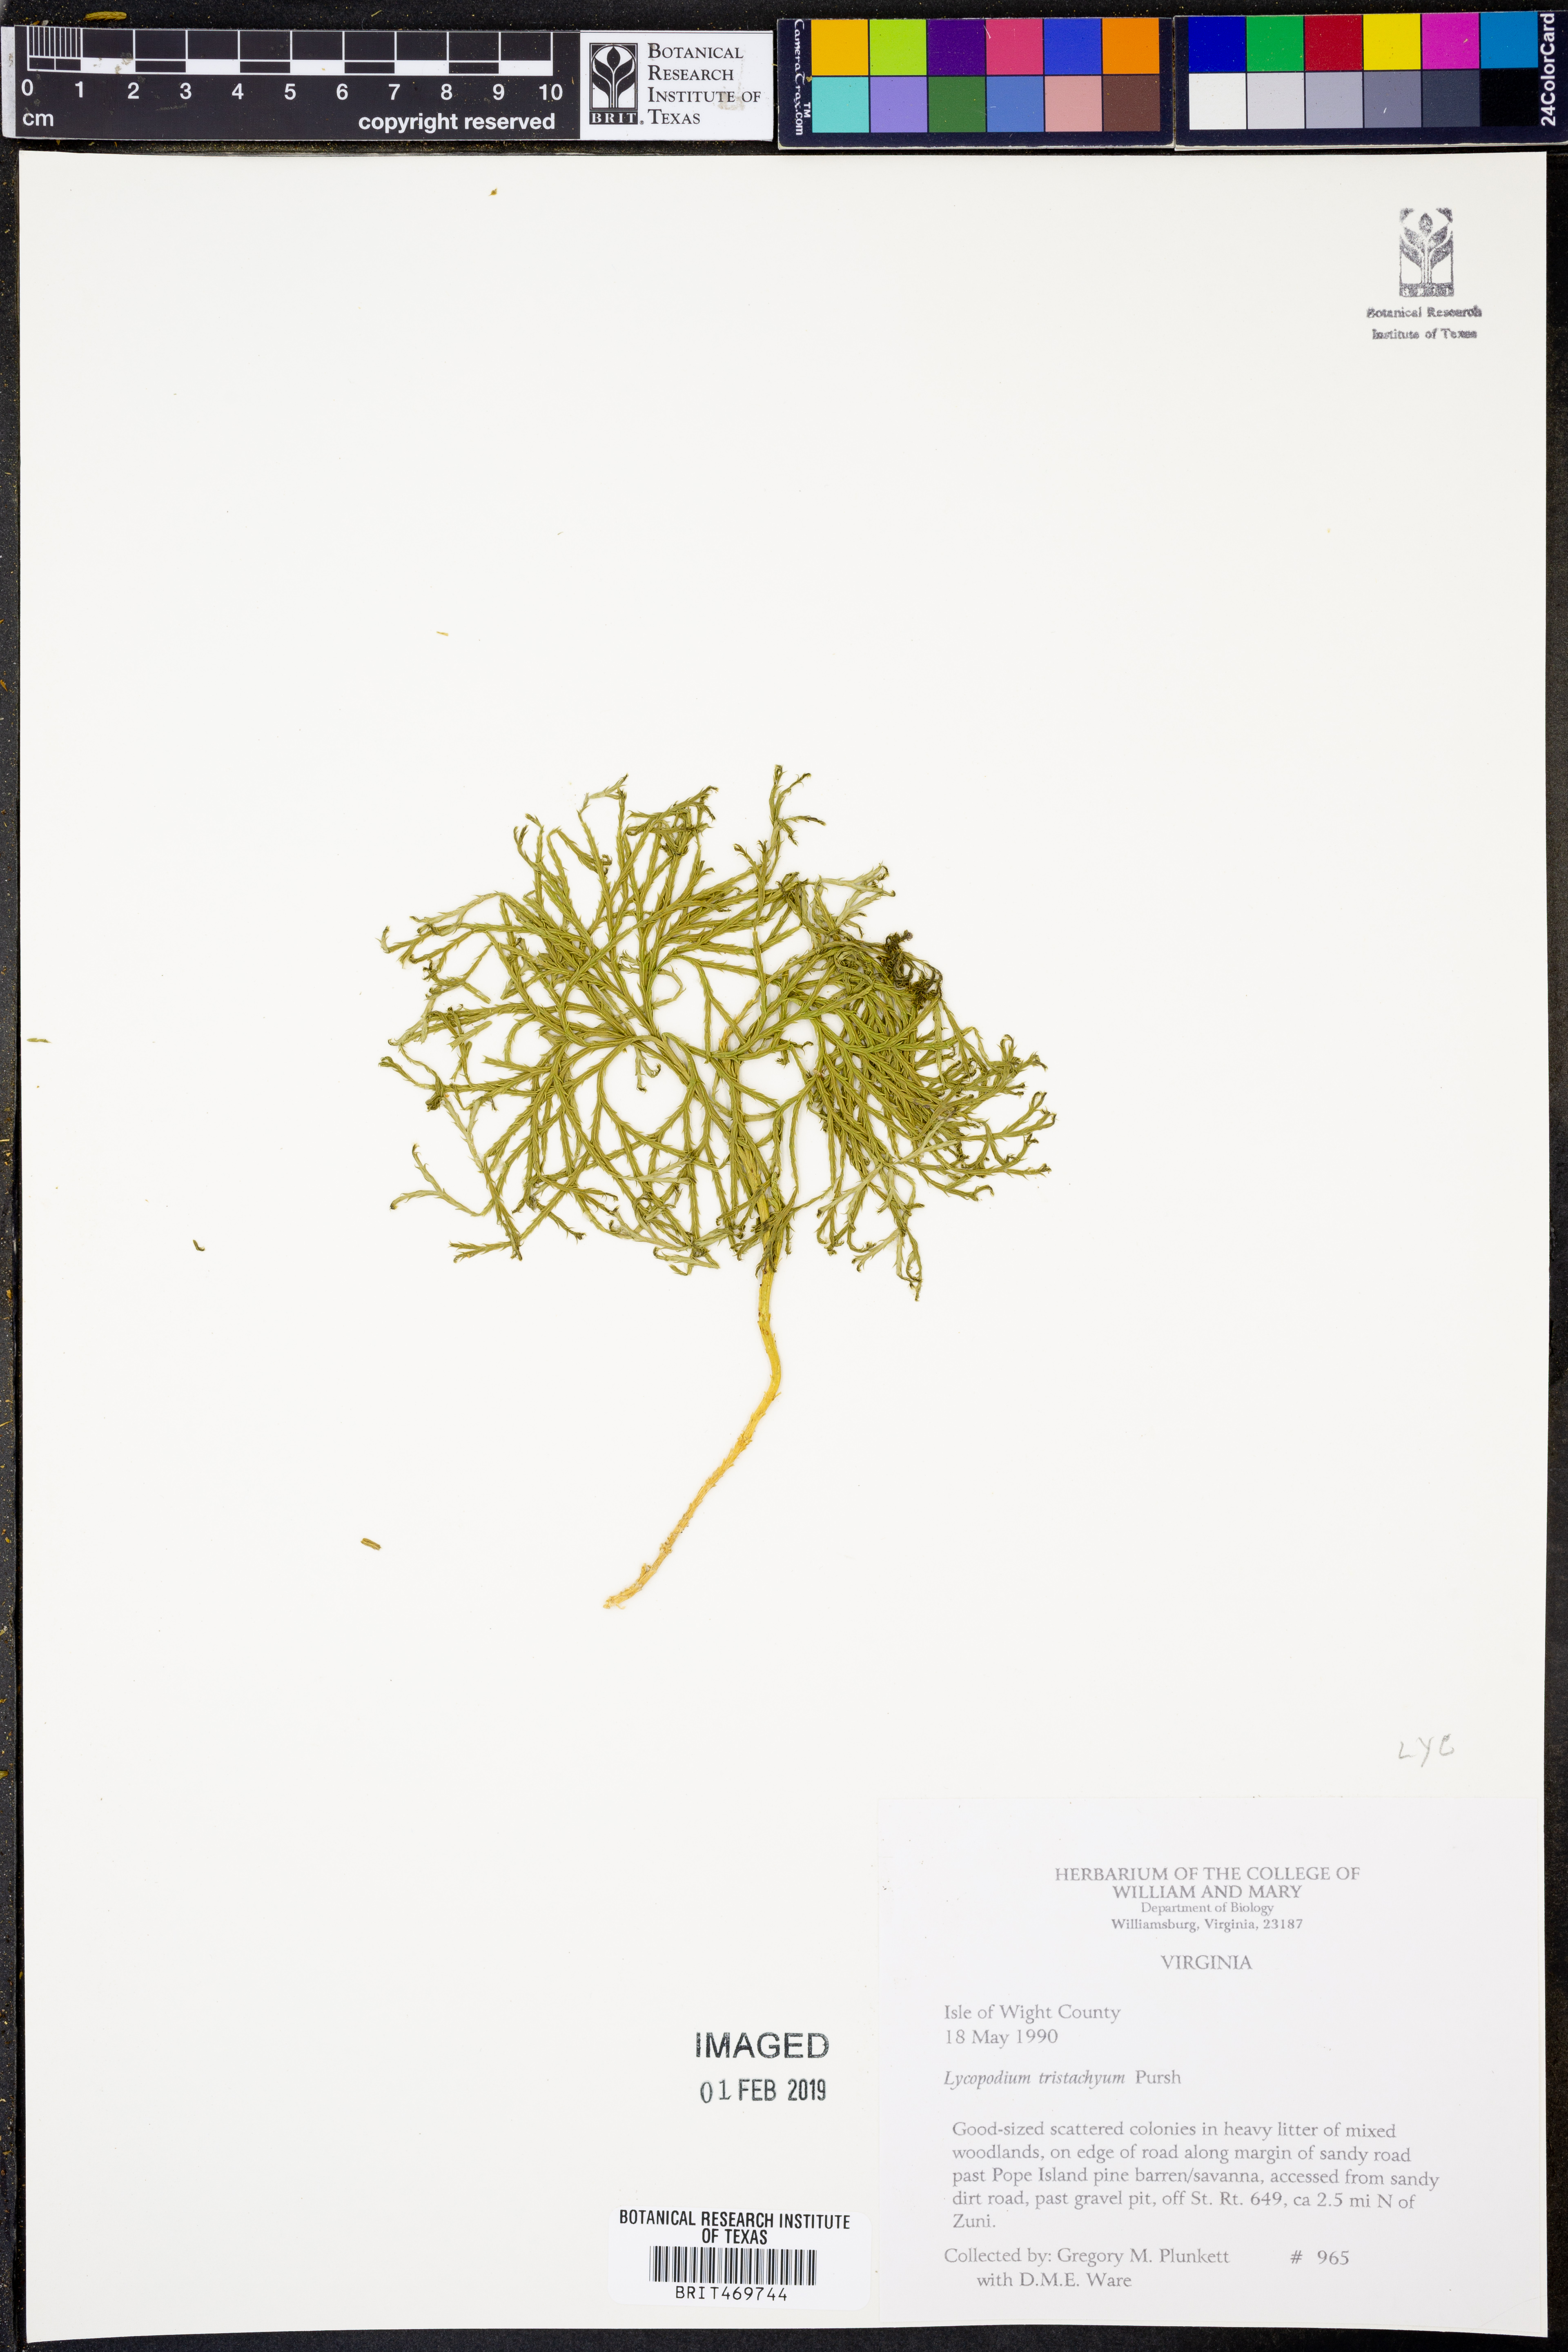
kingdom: Plantae
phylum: Tracheophyta
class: Lycopodiopsida
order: Lycopodiales
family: Lycopodiaceae
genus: Diphasiastrum
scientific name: Diphasiastrum tristachyum
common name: Blue ground-cedar
